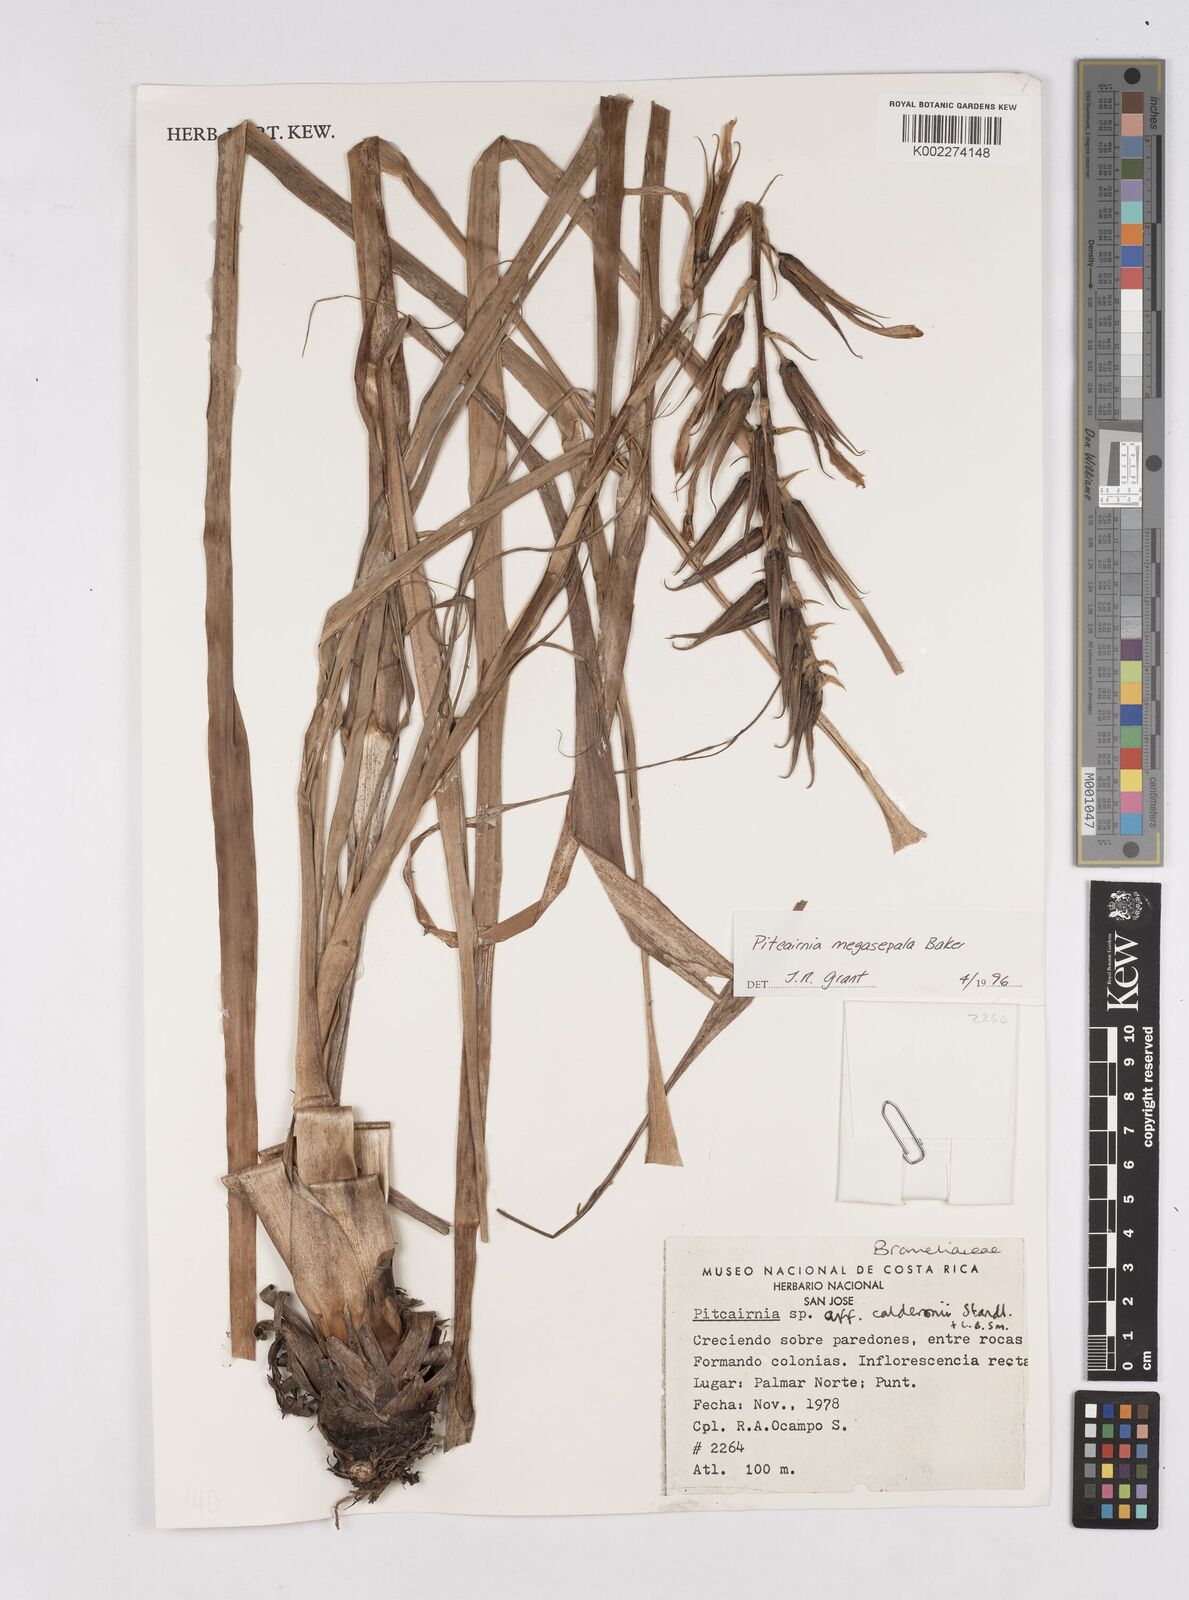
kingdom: Plantae
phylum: Tracheophyta
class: Liliopsida
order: Poales
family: Bromeliaceae
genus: Pitcairnia
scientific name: Pitcairnia megasepala
